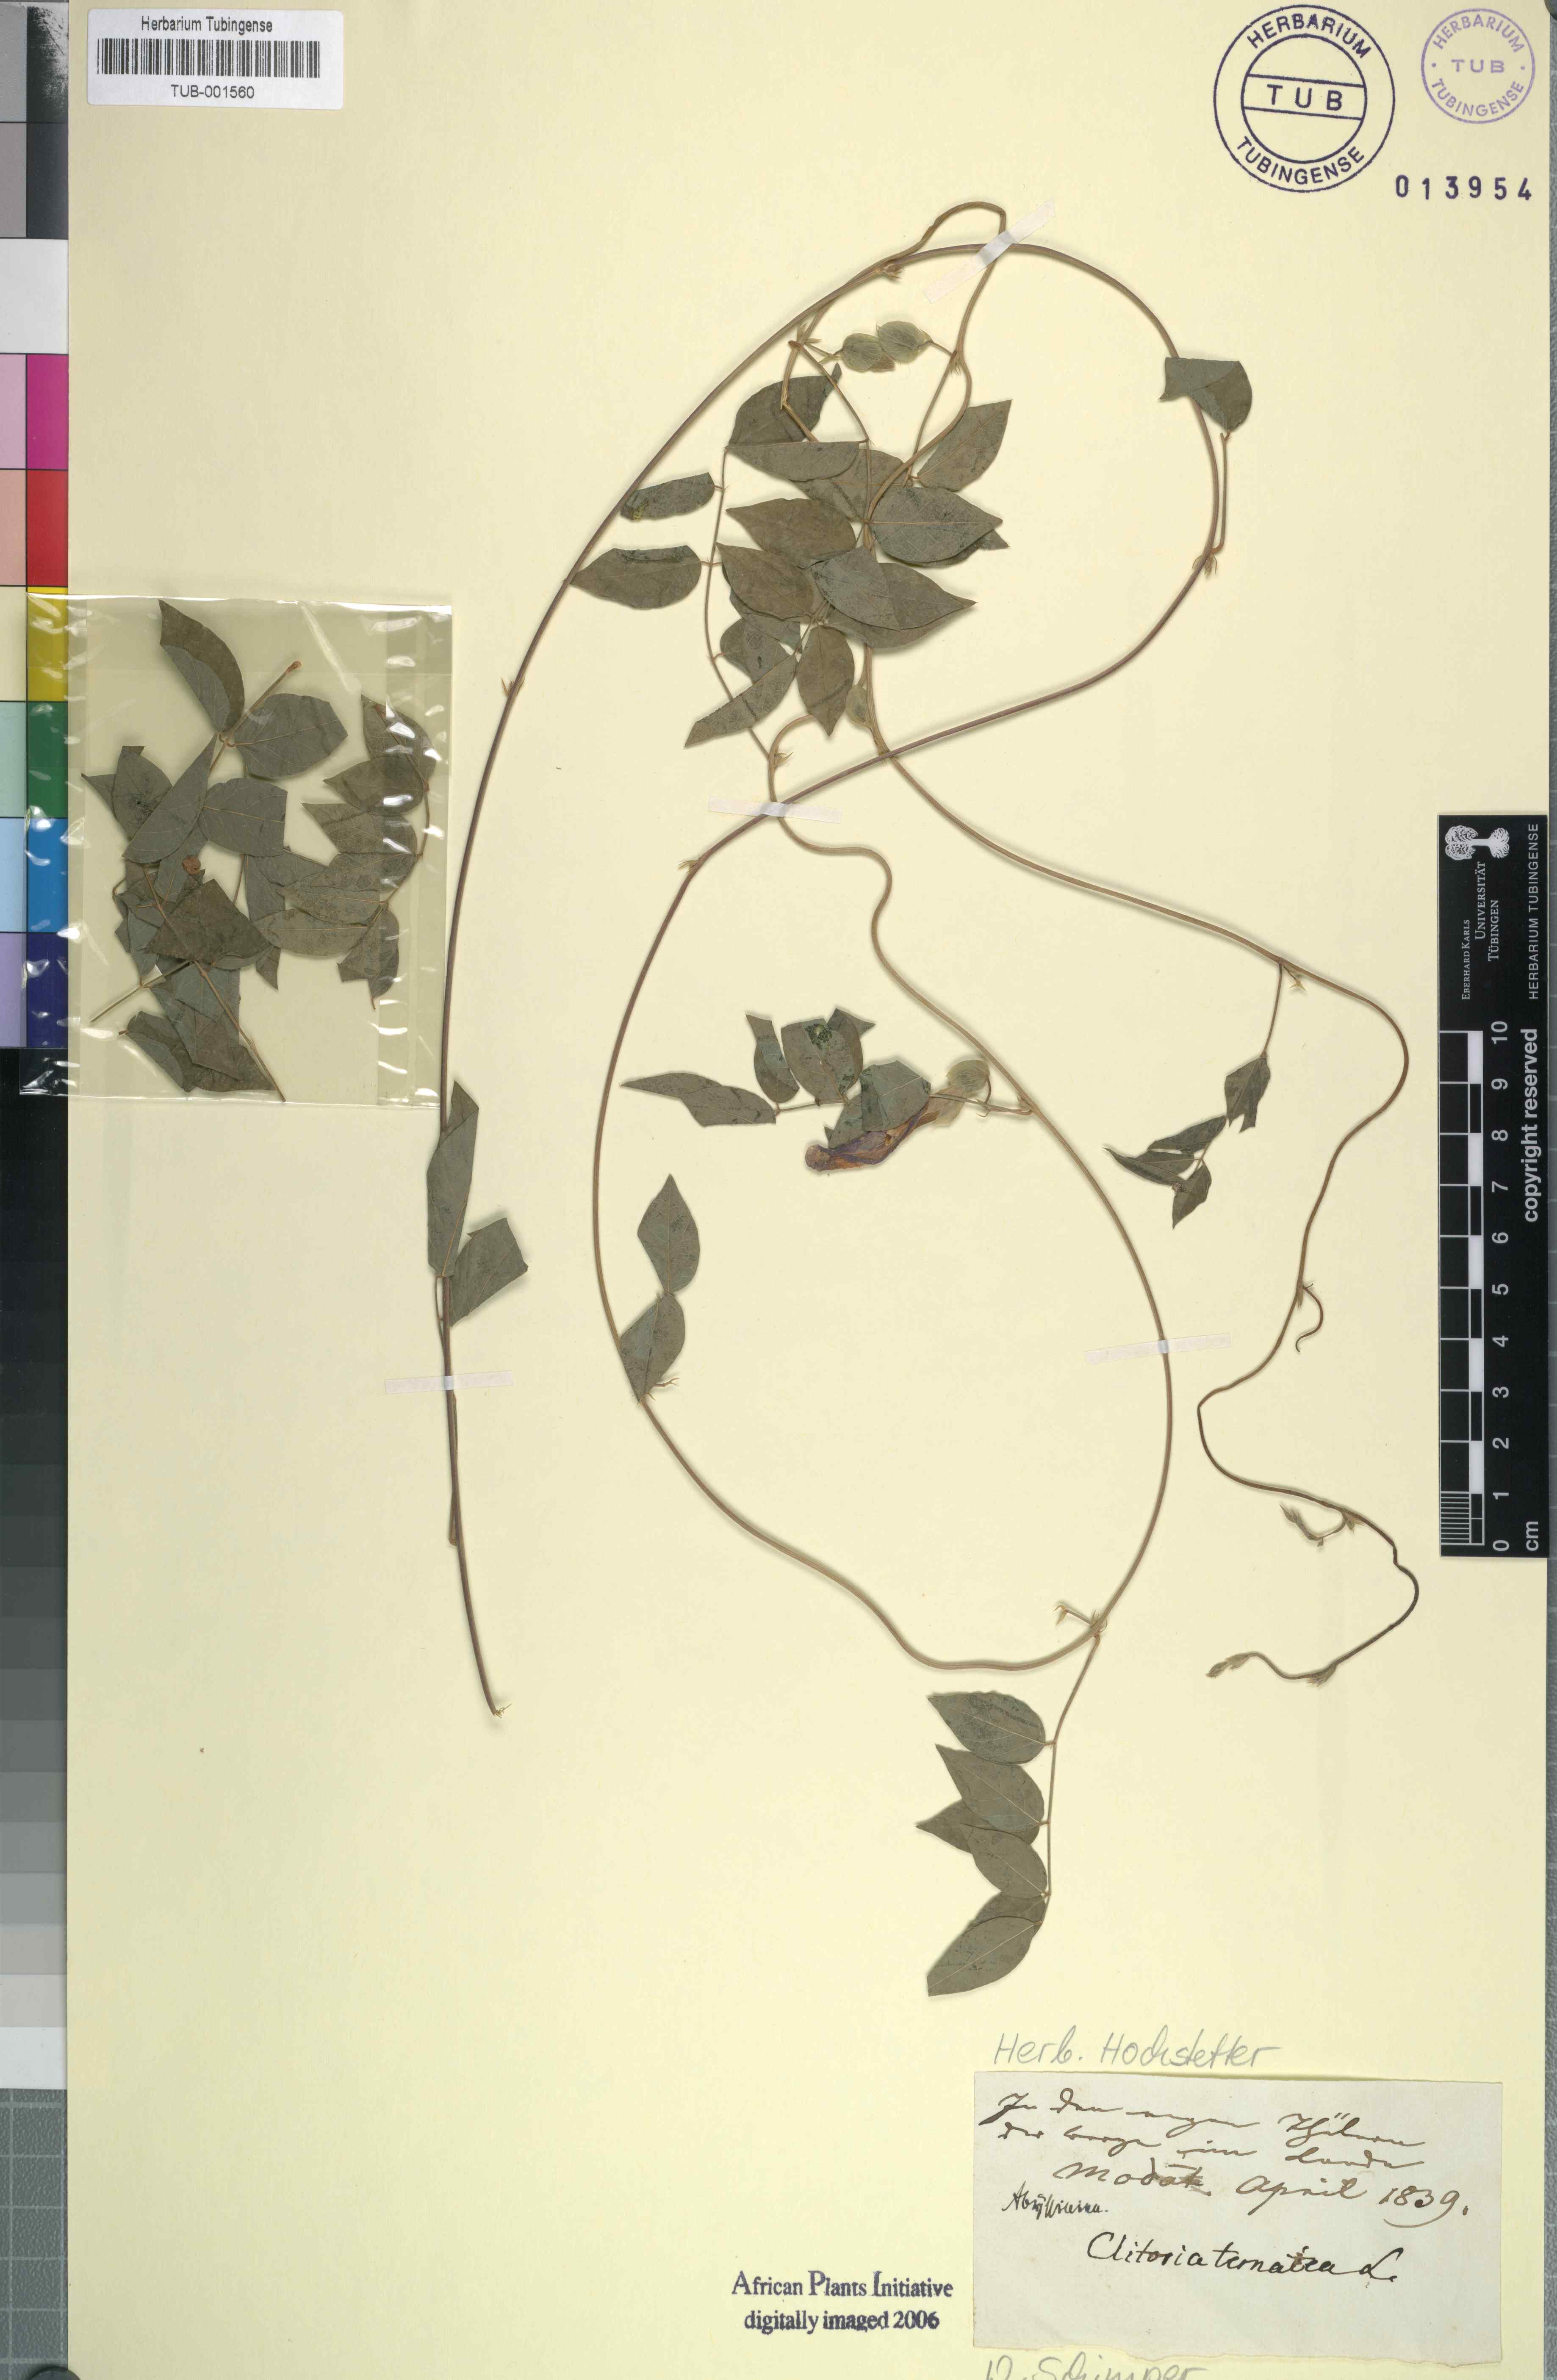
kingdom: Plantae
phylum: Tracheophyta
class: Magnoliopsida
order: Fabales
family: Fabaceae
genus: Clitoria
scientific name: Clitoria ternatea
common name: Asian pigeonwings
